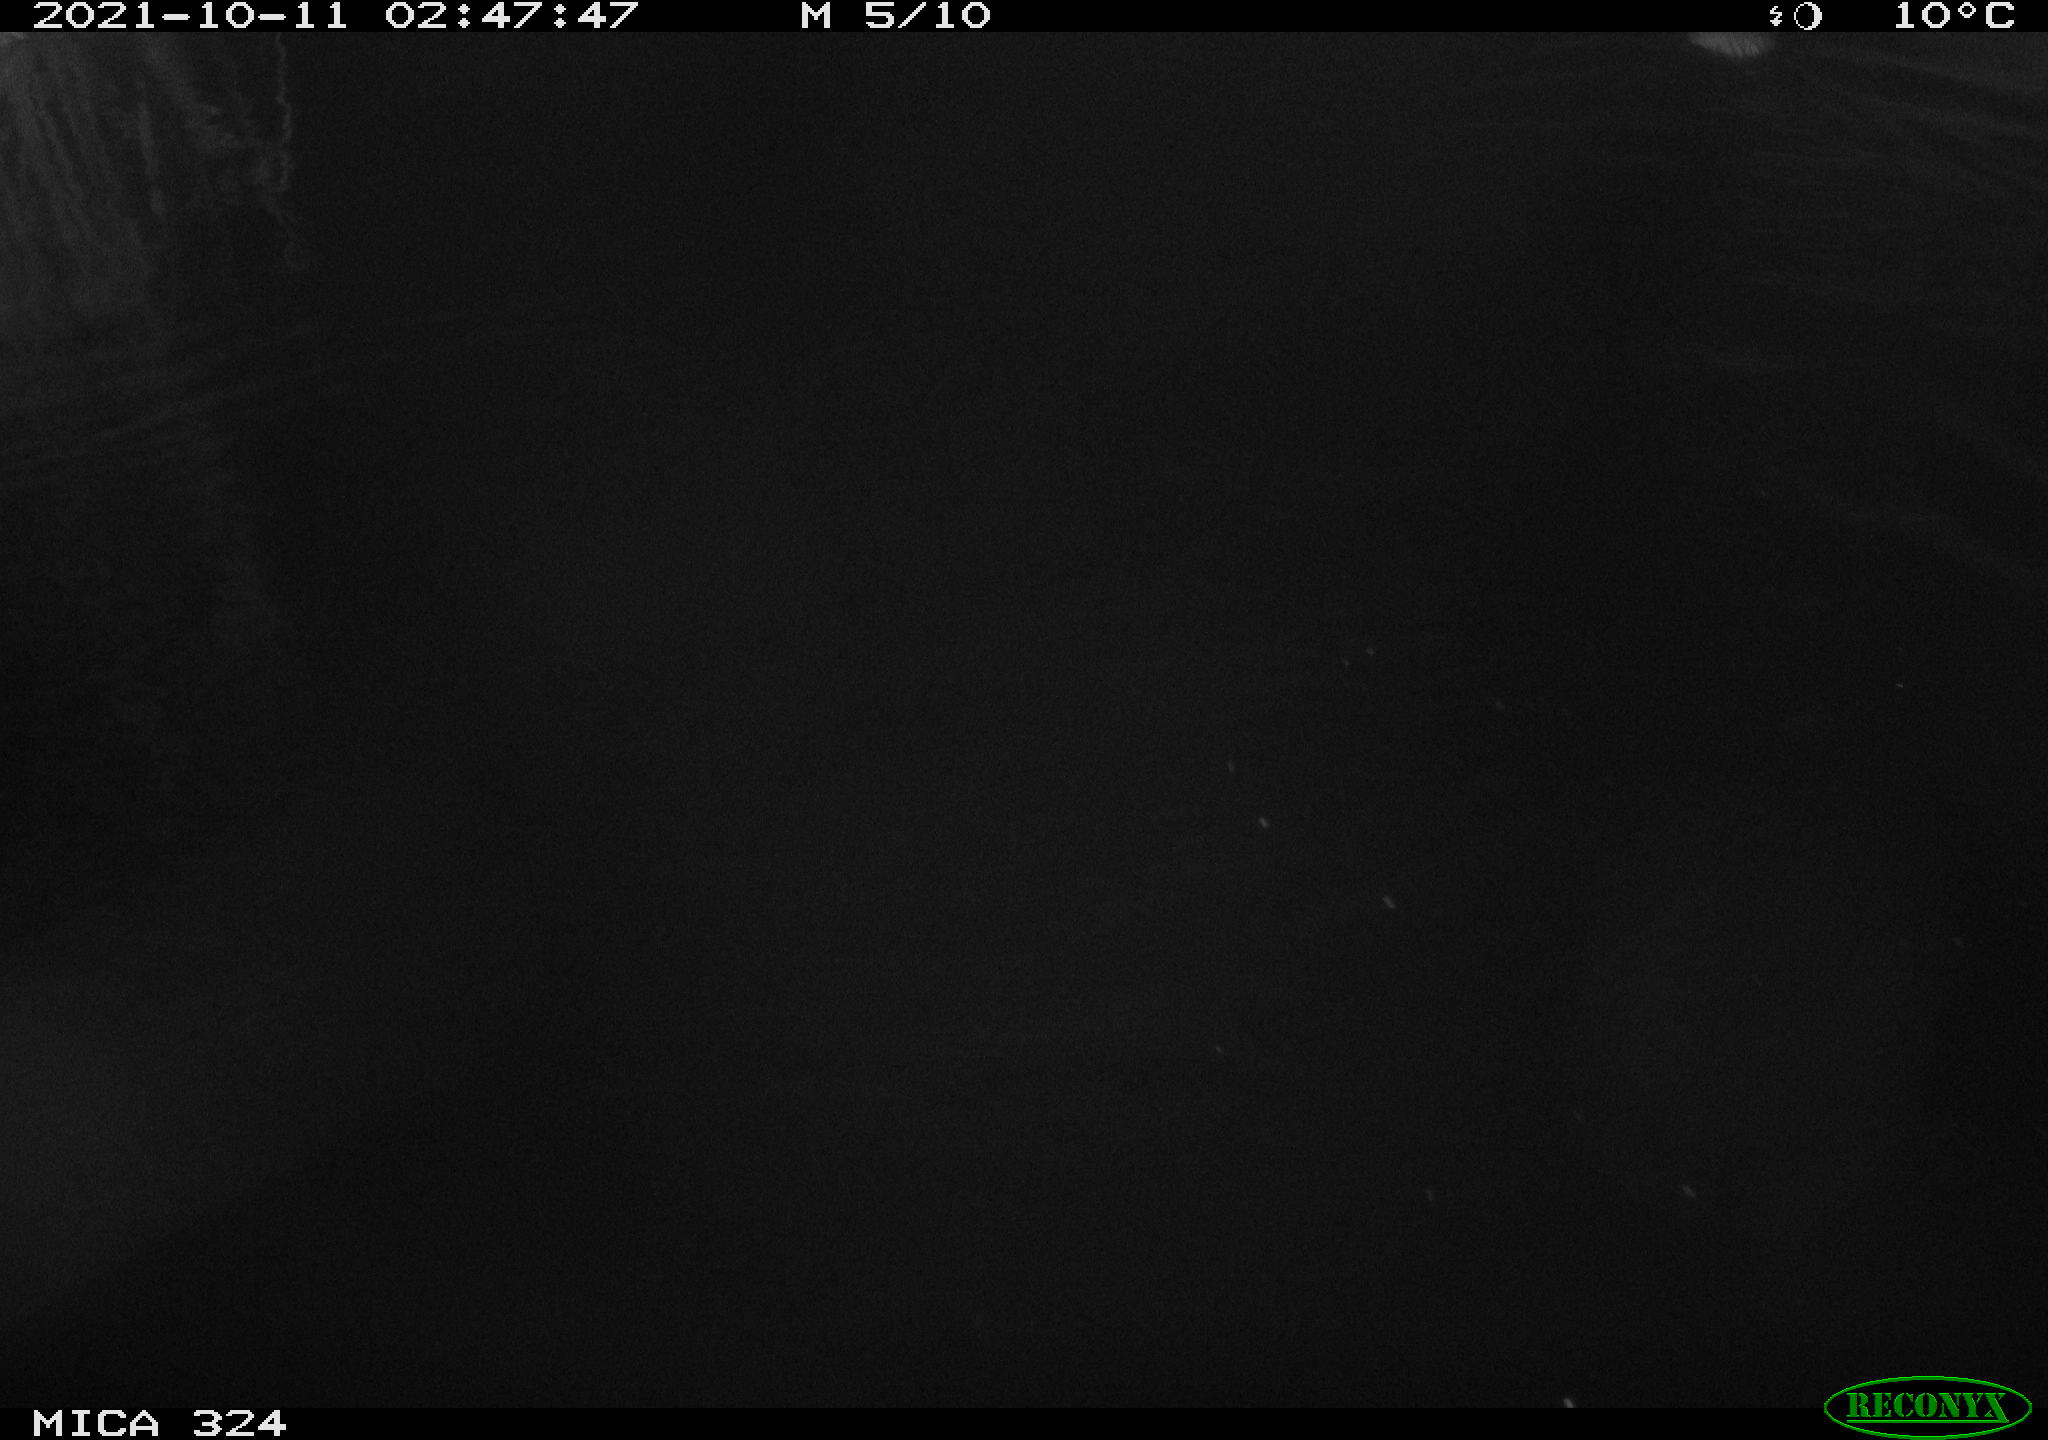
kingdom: Animalia
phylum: Chordata
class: Mammalia
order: Rodentia
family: Cricetidae
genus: Ondatra
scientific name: Ondatra zibethicus
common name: Muskrat
